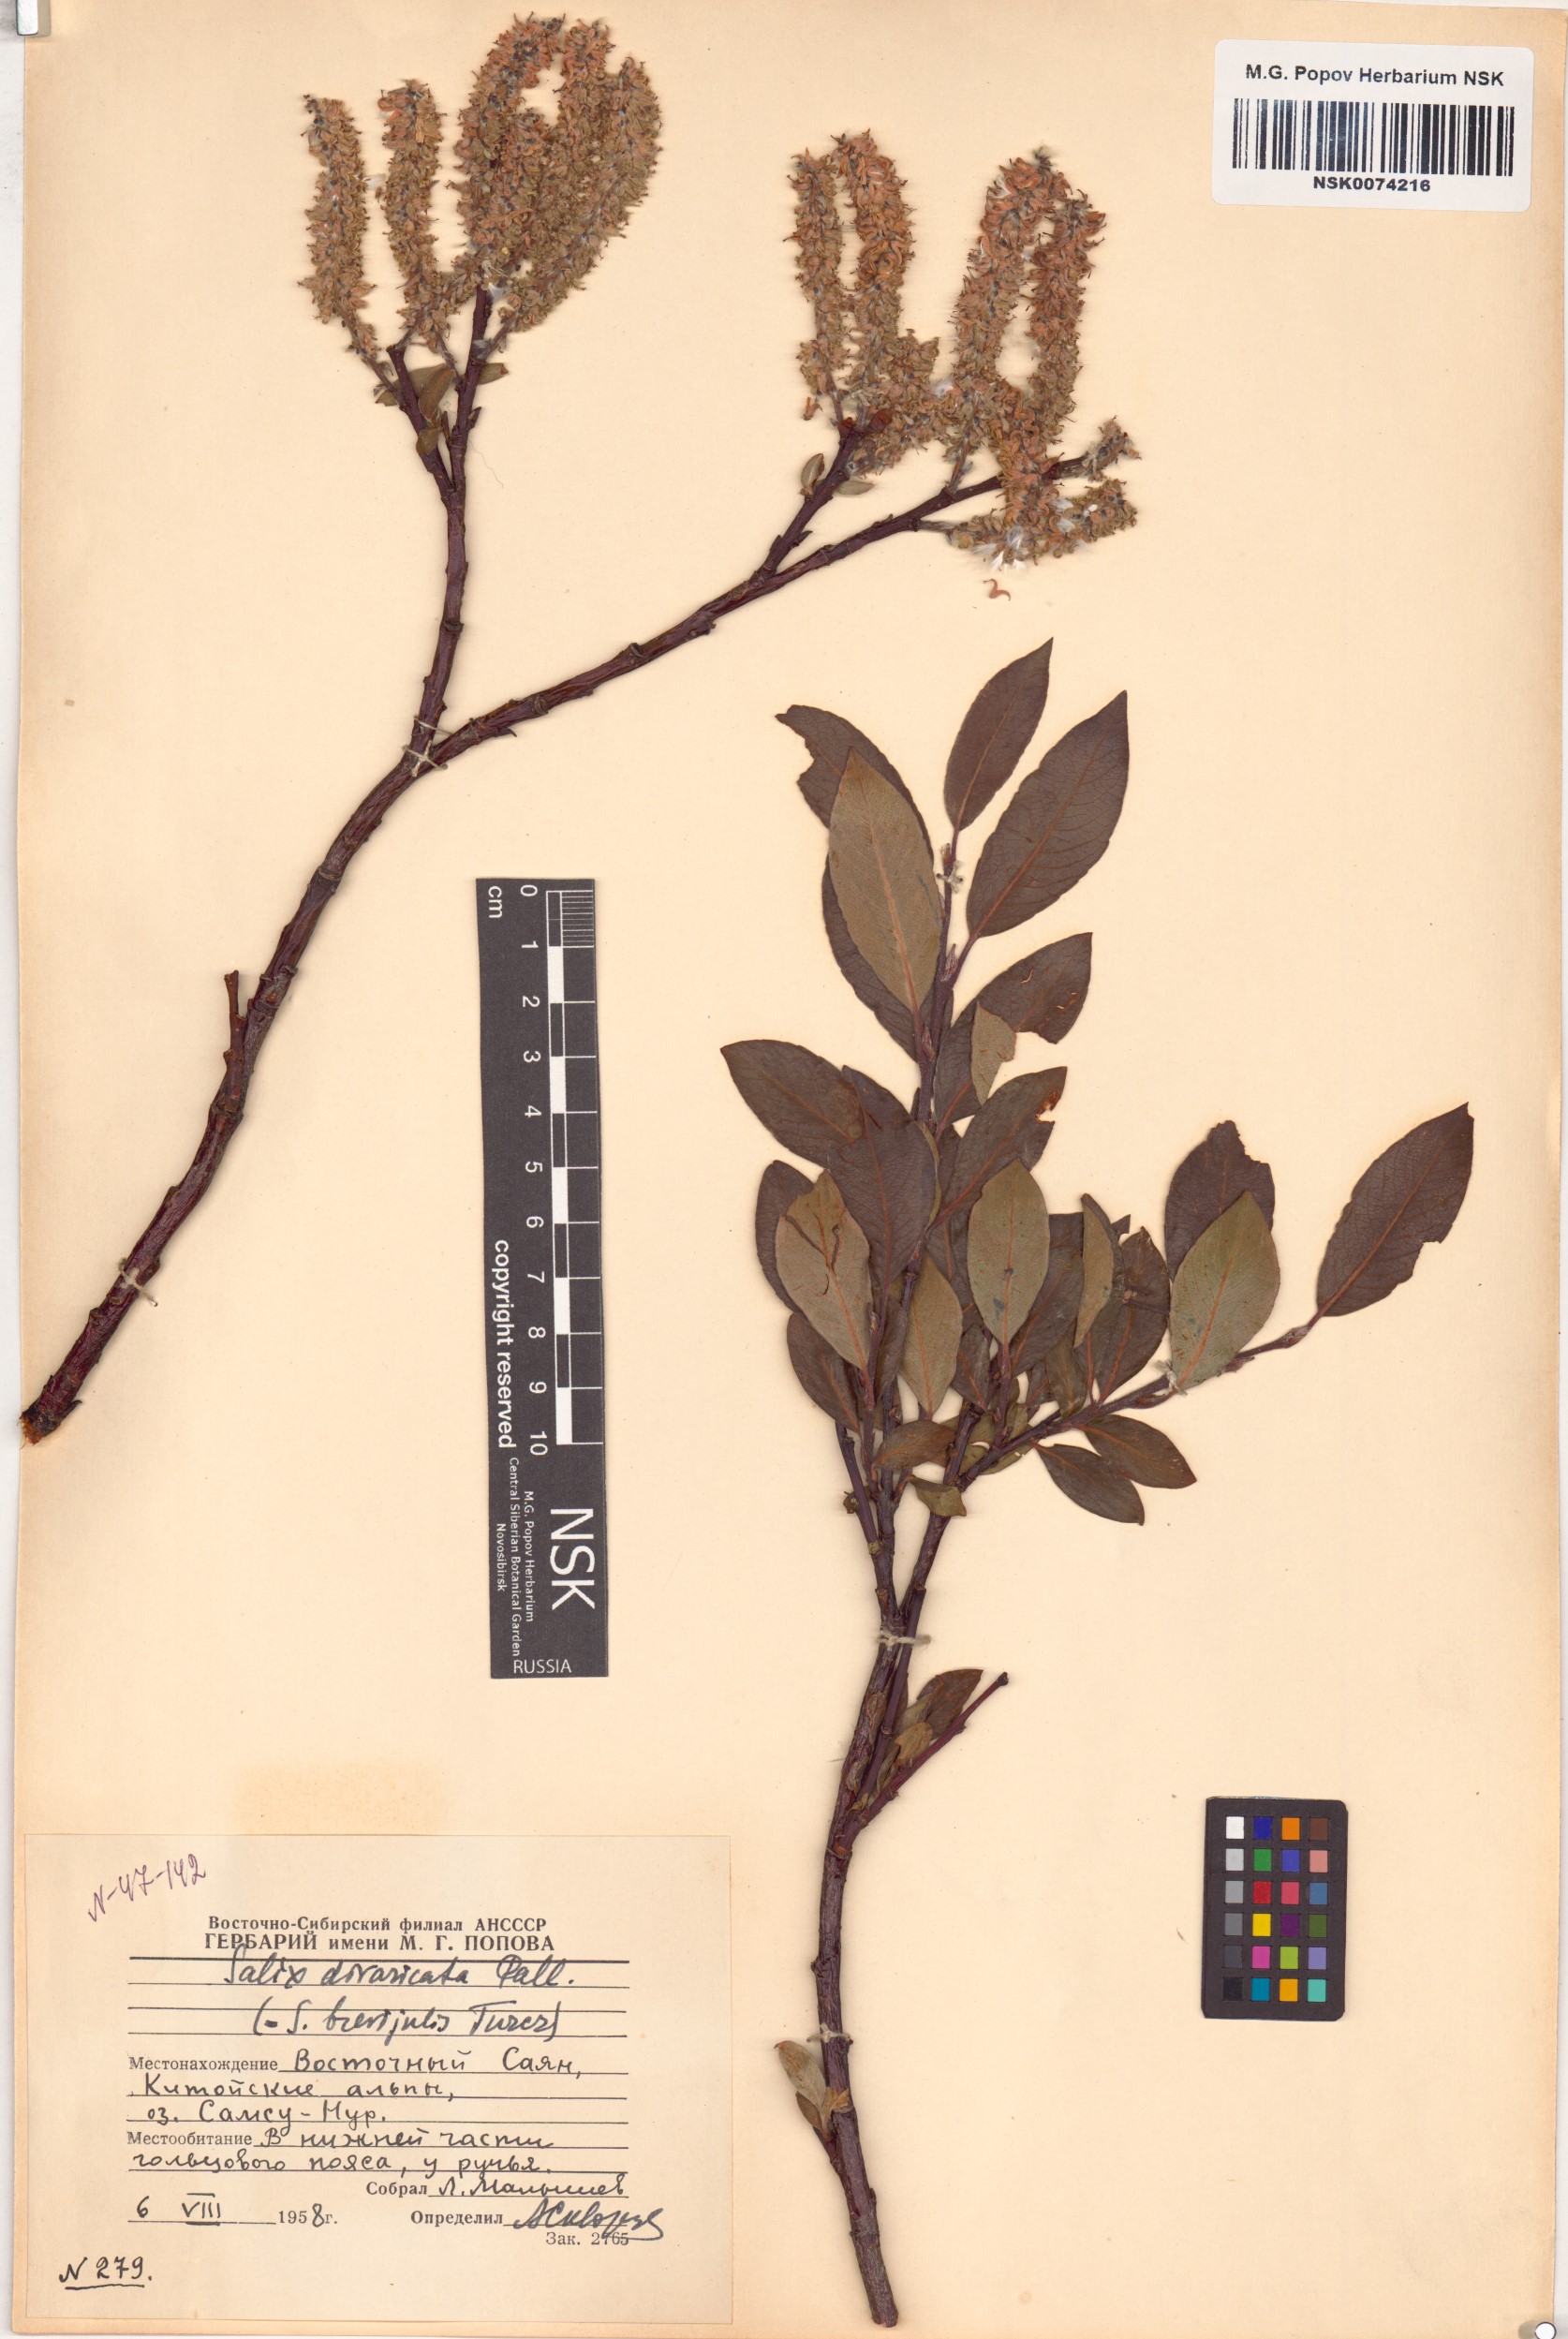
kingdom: Plantae
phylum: Tracheophyta
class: Magnoliopsida
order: Malpighiales
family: Salicaceae
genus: Salix
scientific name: Salix divaricata
